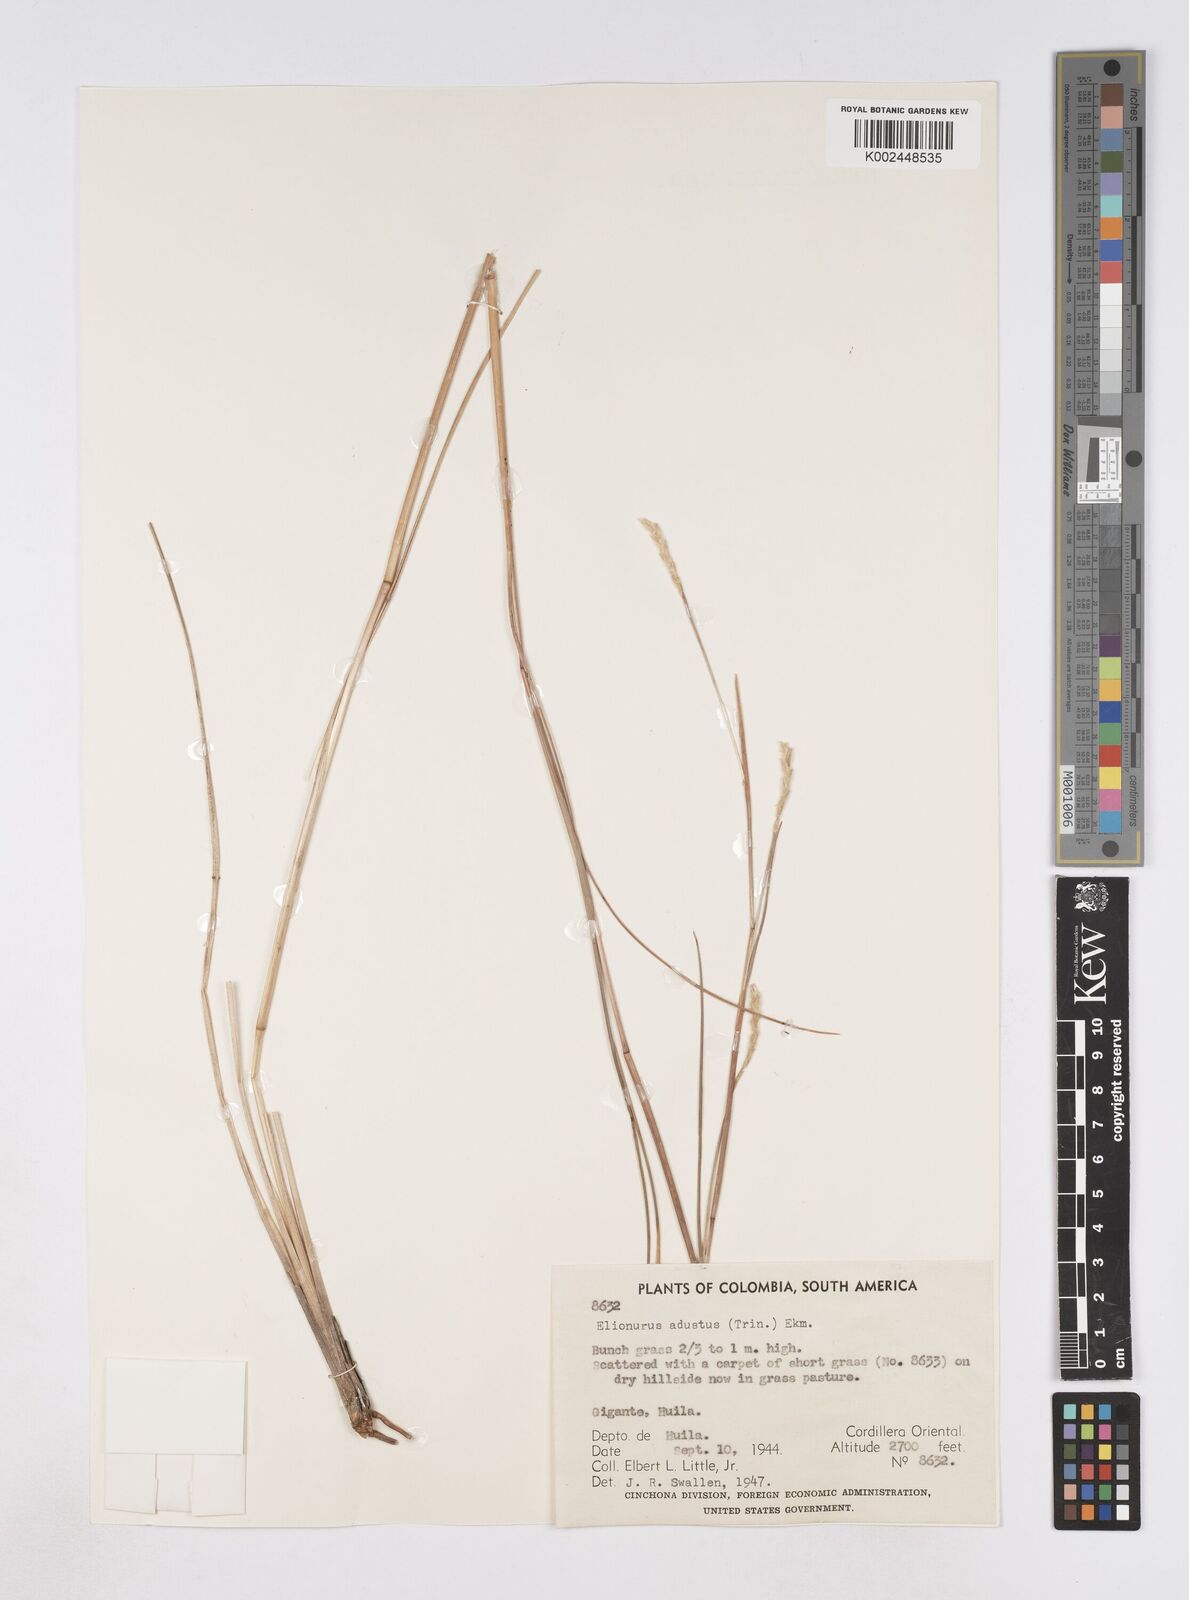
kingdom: Plantae
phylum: Tracheophyta
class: Liliopsida
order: Poales
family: Poaceae
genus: Elionurus
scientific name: Elionurus muticus
